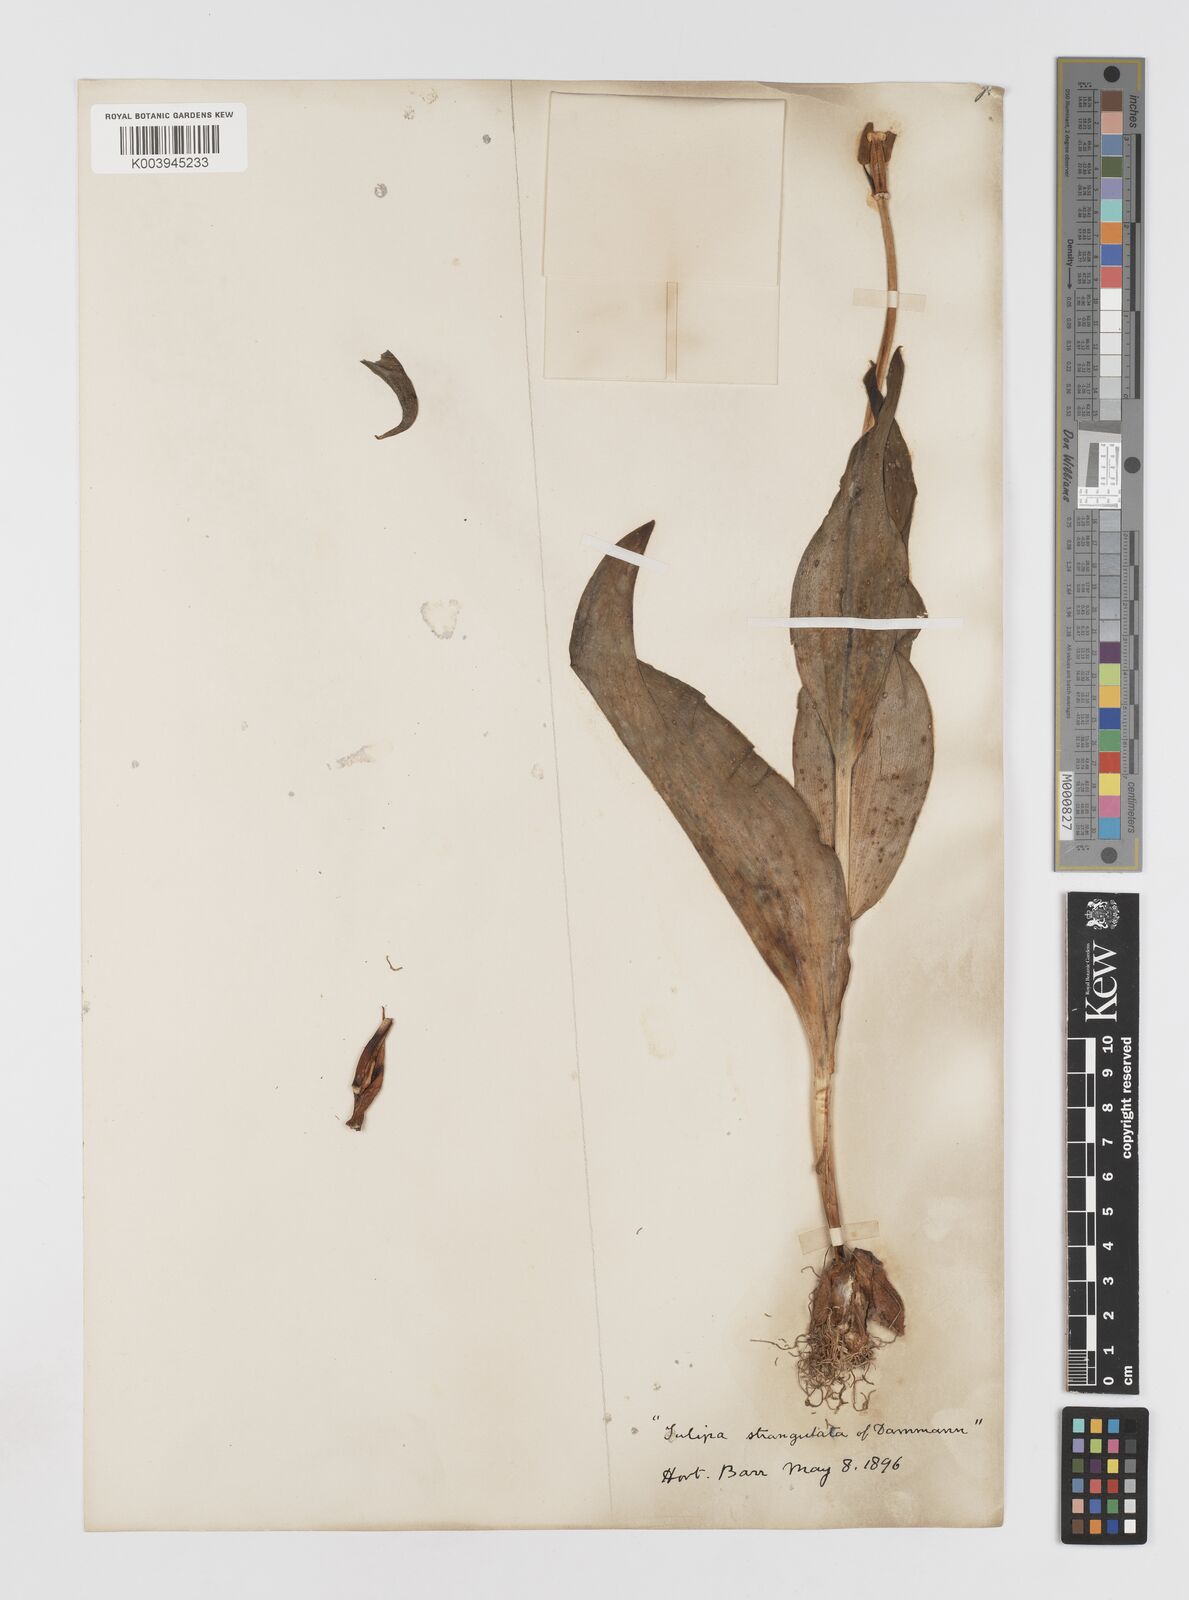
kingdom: Plantae
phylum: Tracheophyta
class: Liliopsida
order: Liliales
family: Liliaceae
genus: Tulipa
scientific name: Tulipa
